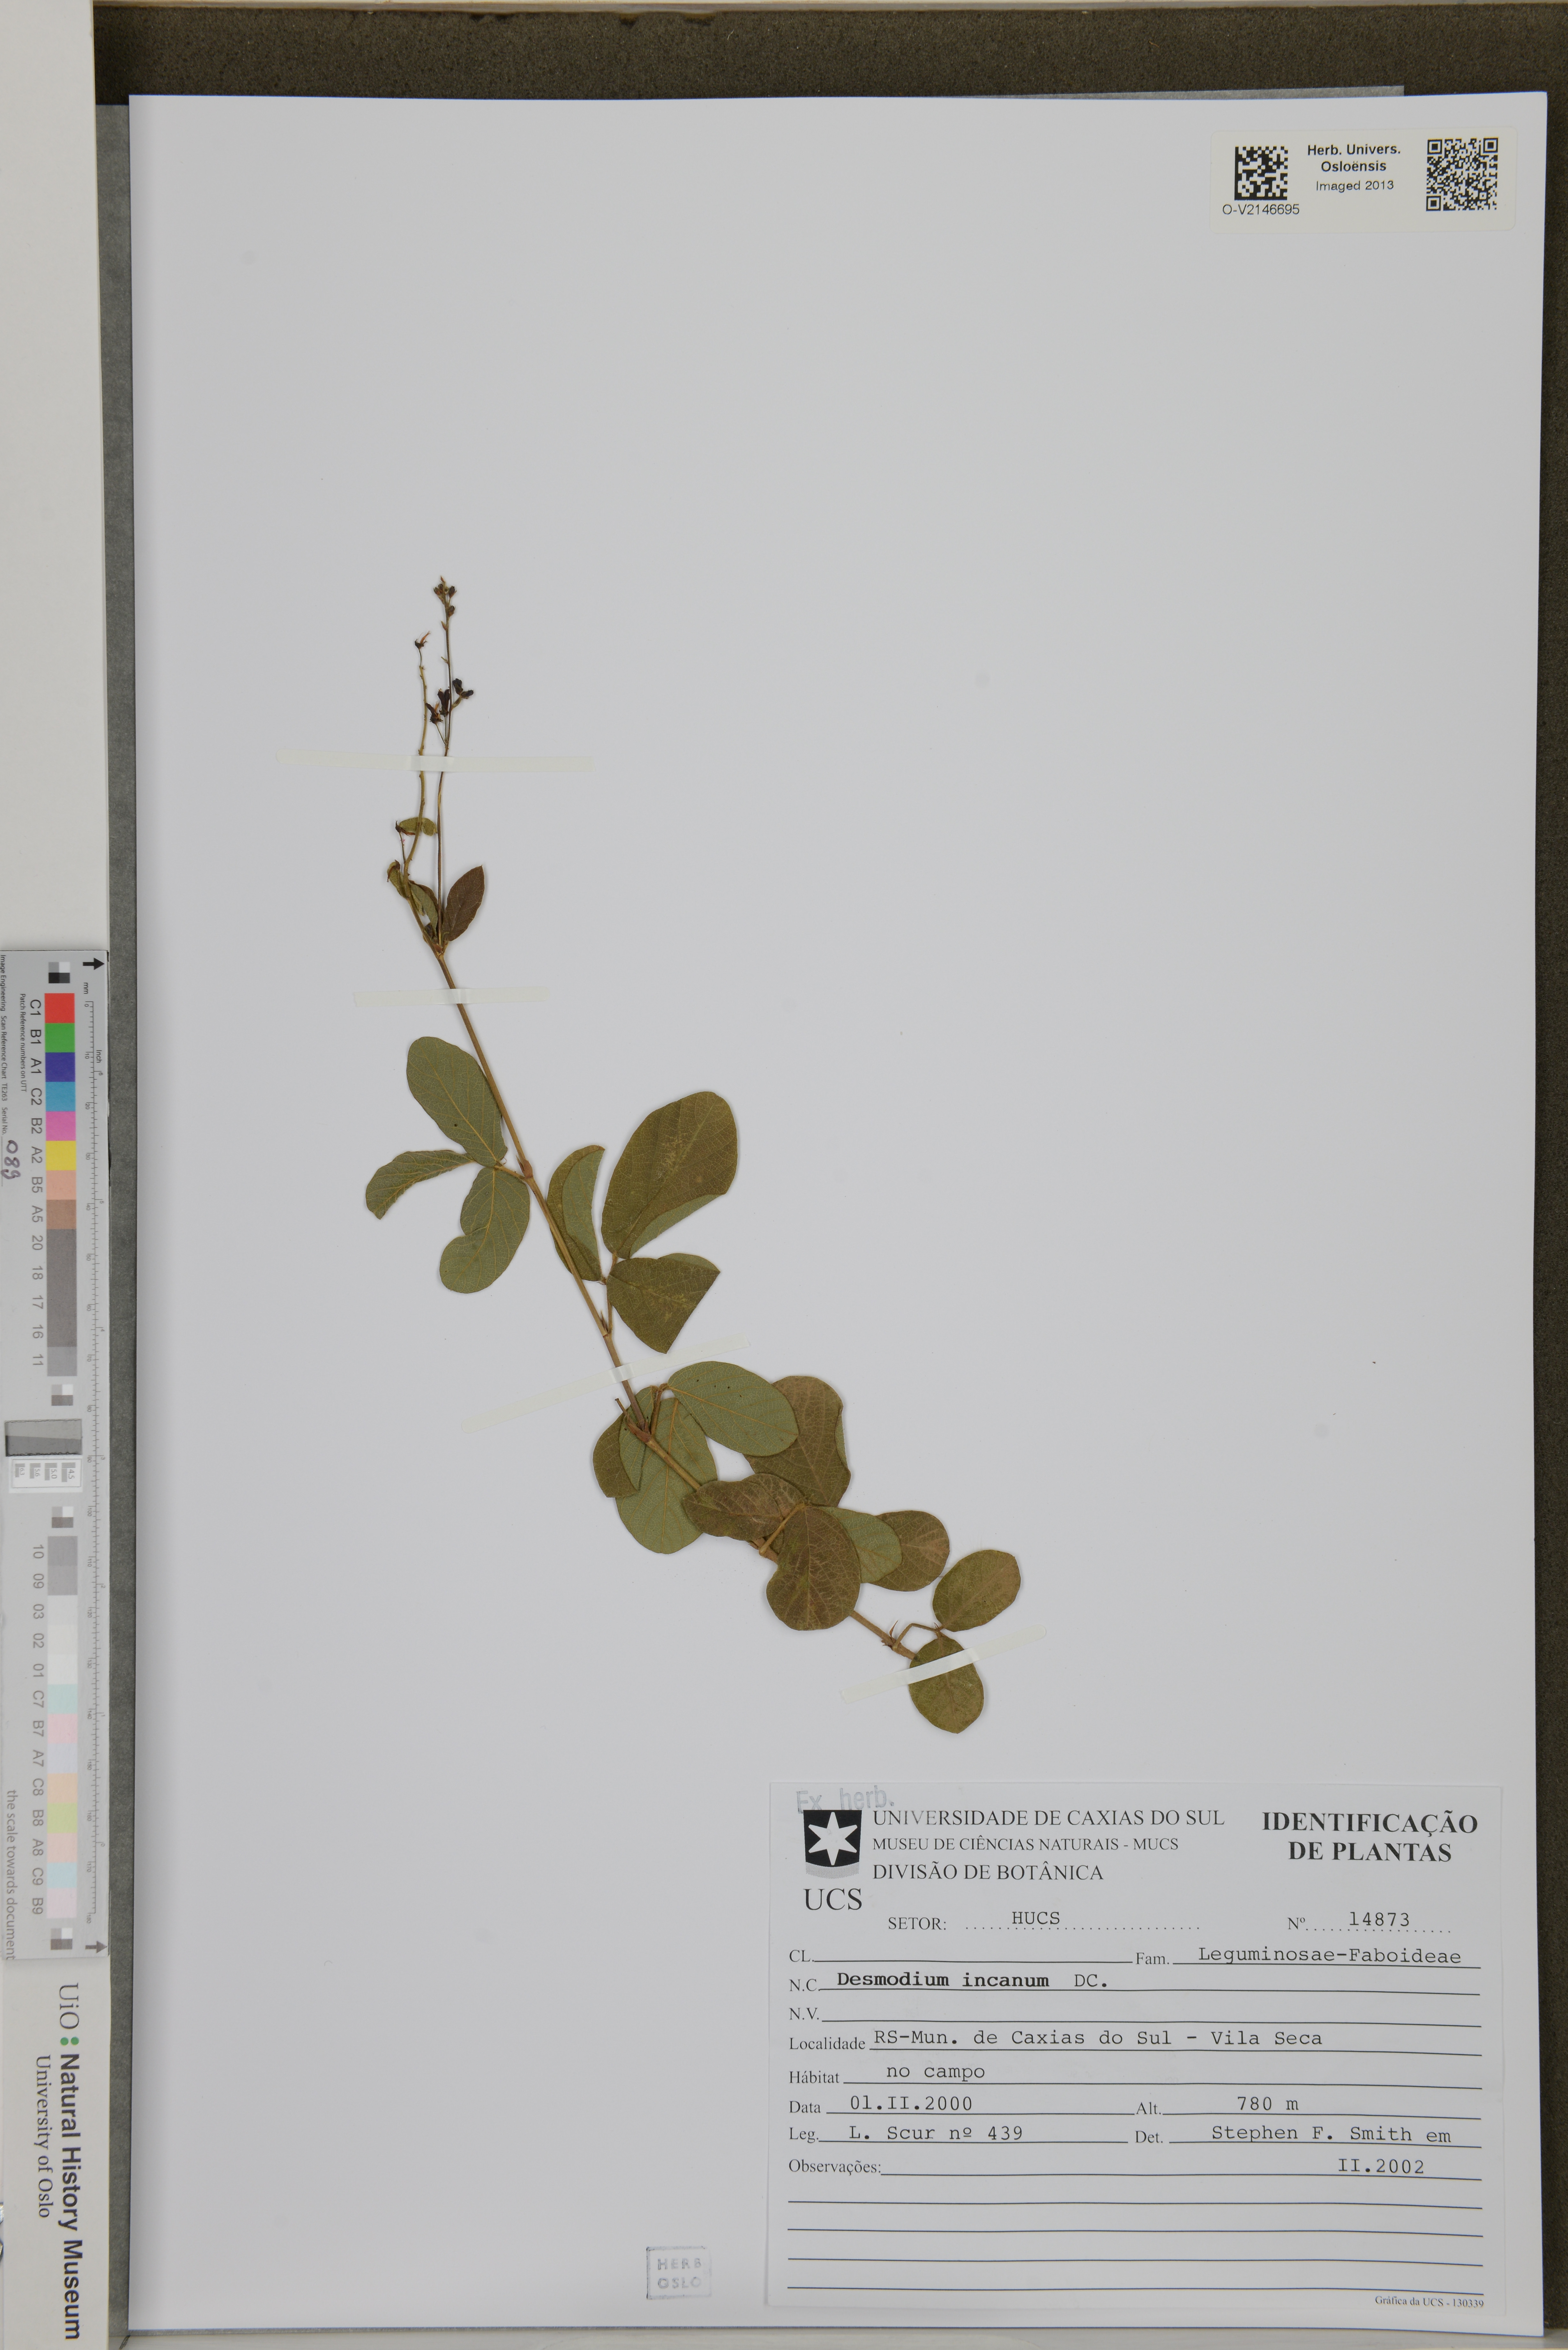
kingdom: Plantae
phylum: Tracheophyta
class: Magnoliopsida
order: Fabales
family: Fabaceae
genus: Desmodium
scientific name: Desmodium incanum
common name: Tickclover
